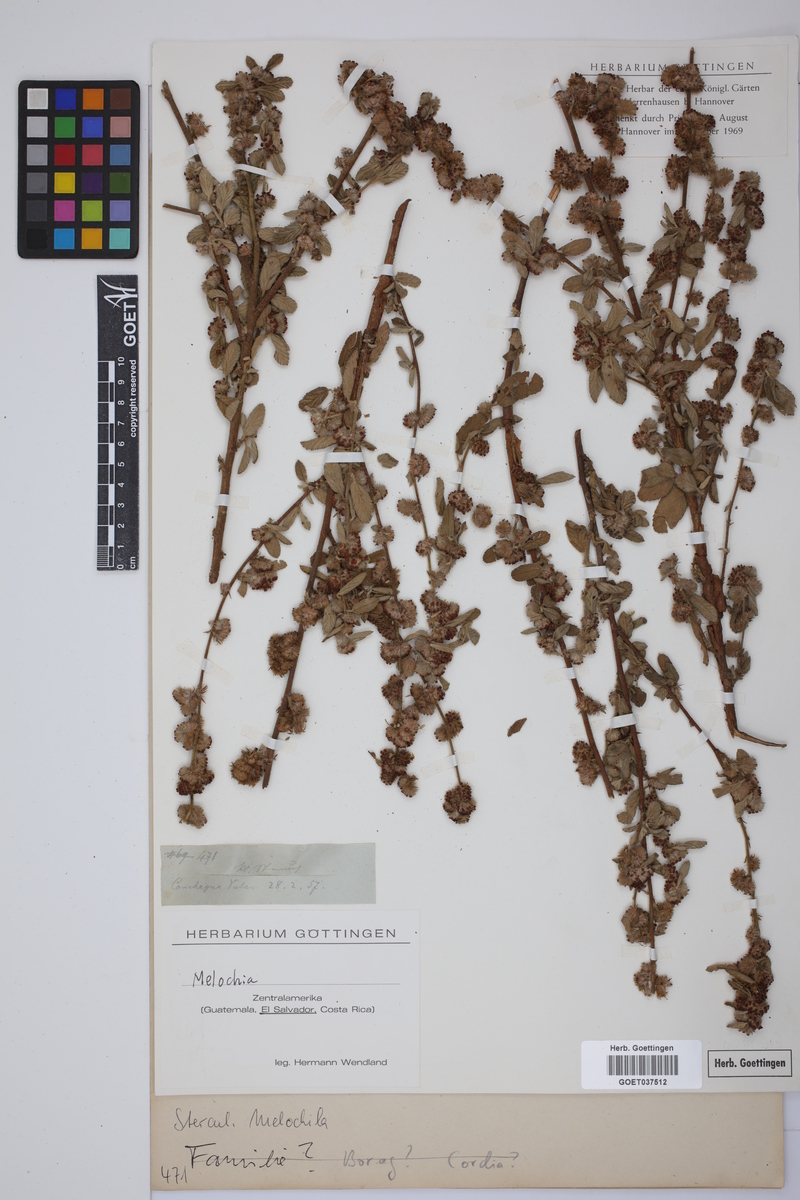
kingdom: Plantae
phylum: Tracheophyta
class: Magnoliopsida
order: Malvales
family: Malvaceae
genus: Melochia
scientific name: Melochia
